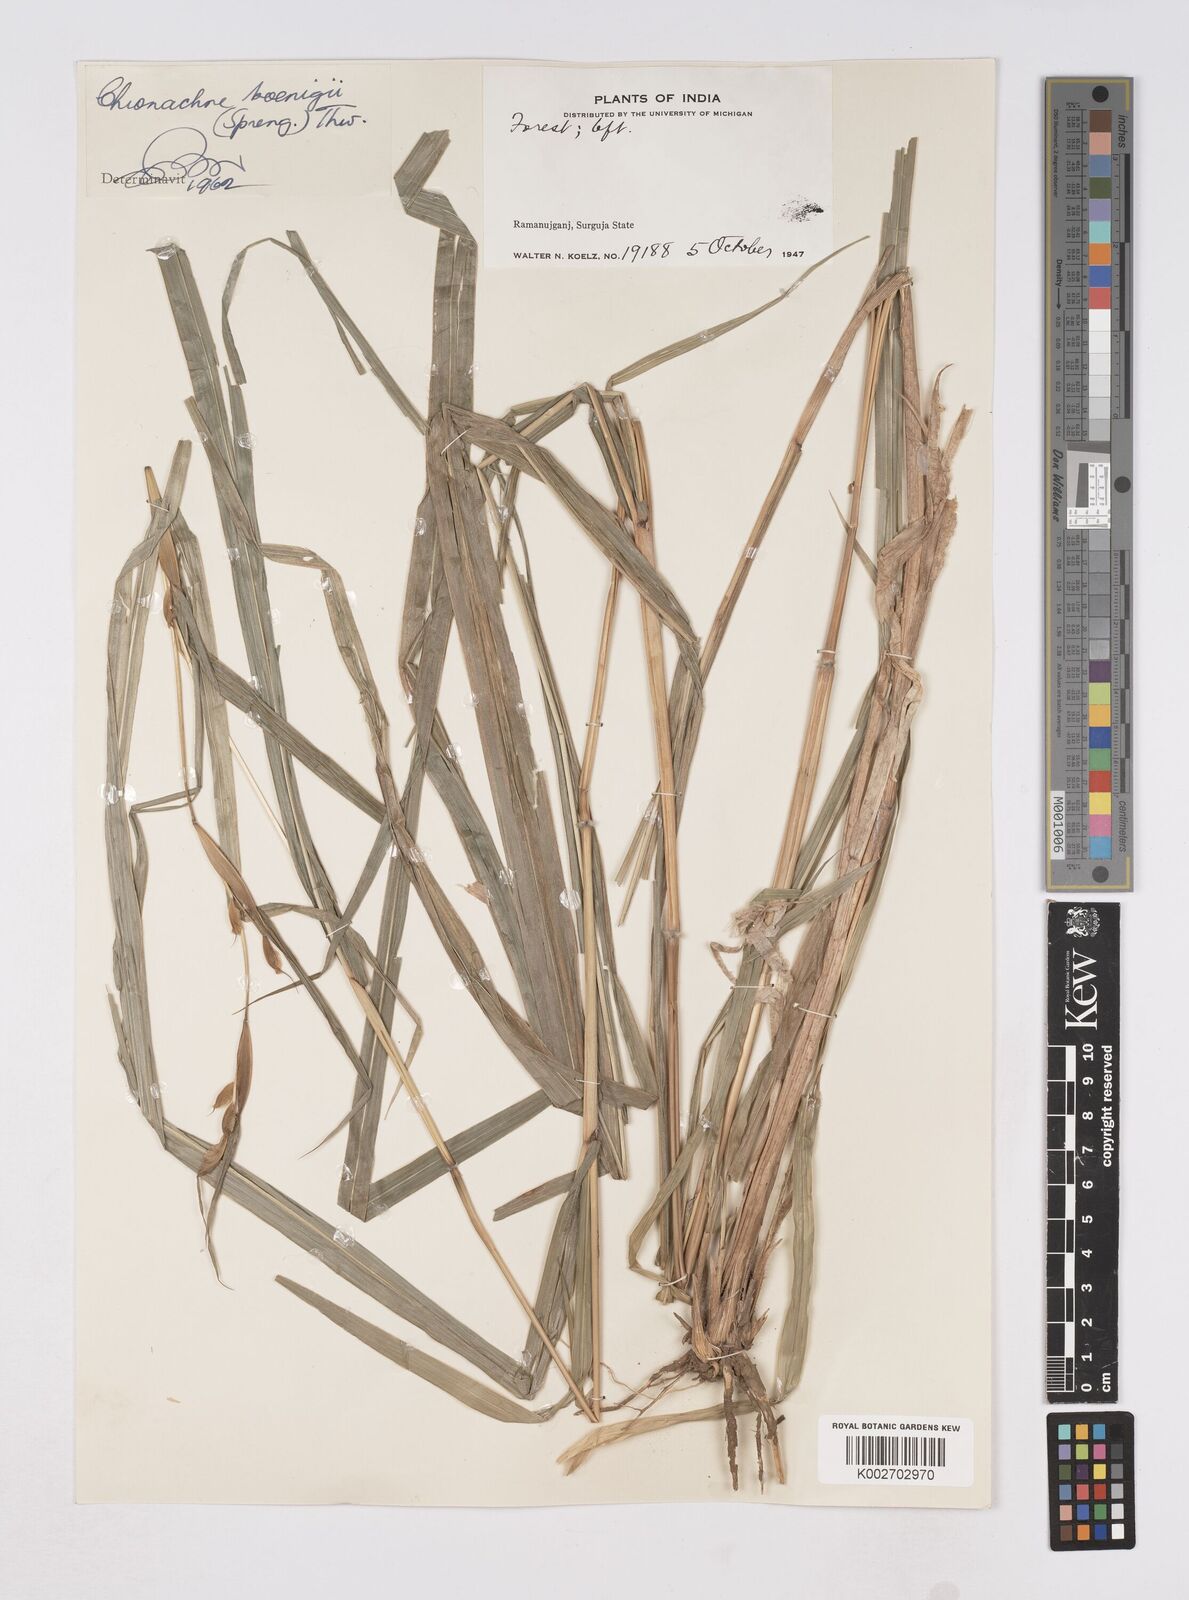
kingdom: Plantae
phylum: Tracheophyta
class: Liliopsida
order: Poales
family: Poaceae
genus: Polytoca
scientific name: Polytoca gigantea
